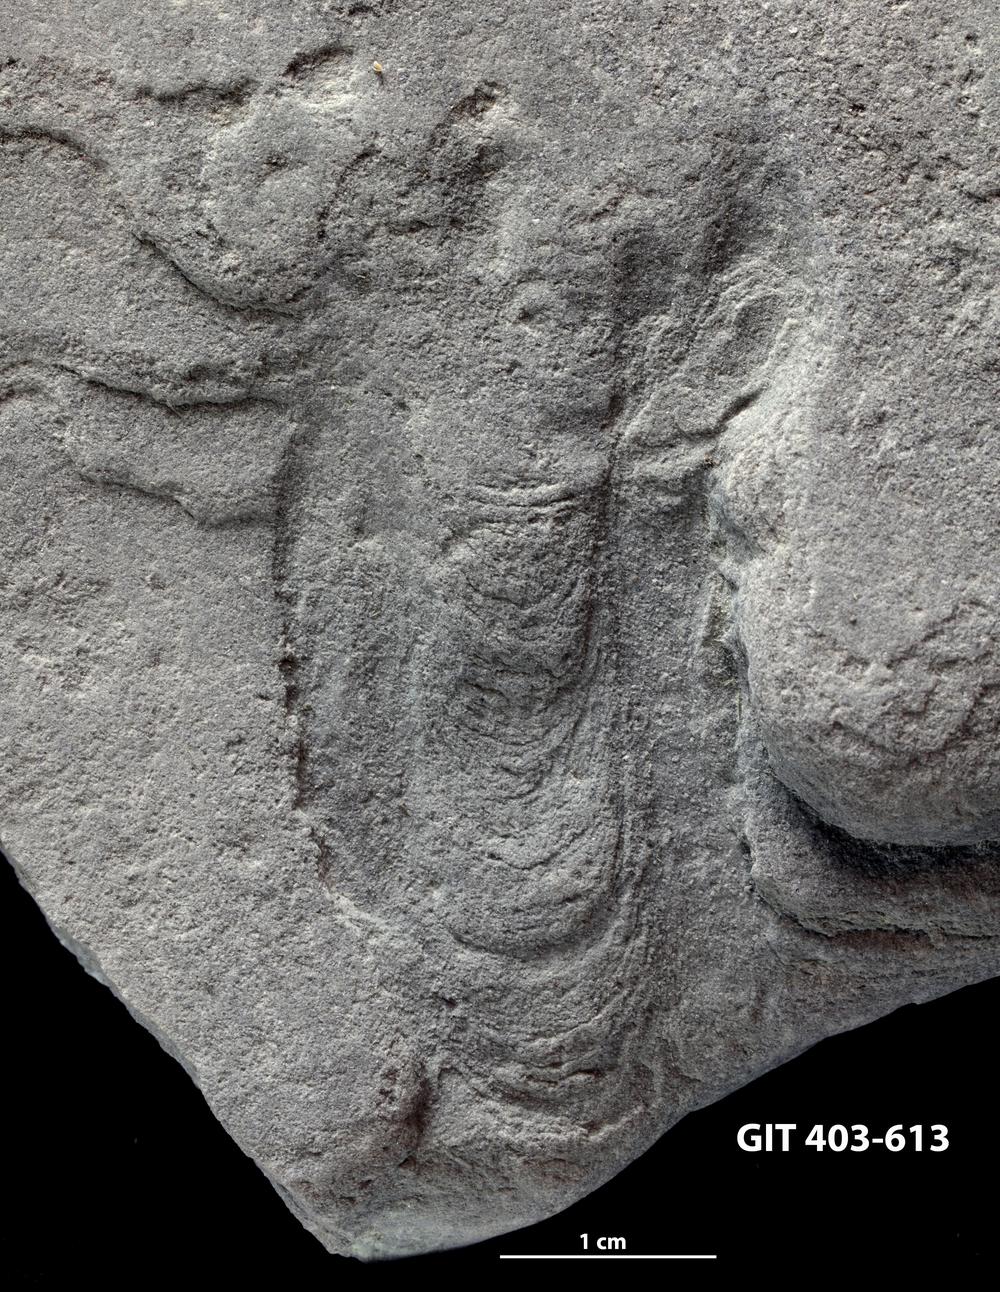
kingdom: Animalia
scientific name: Animalia
